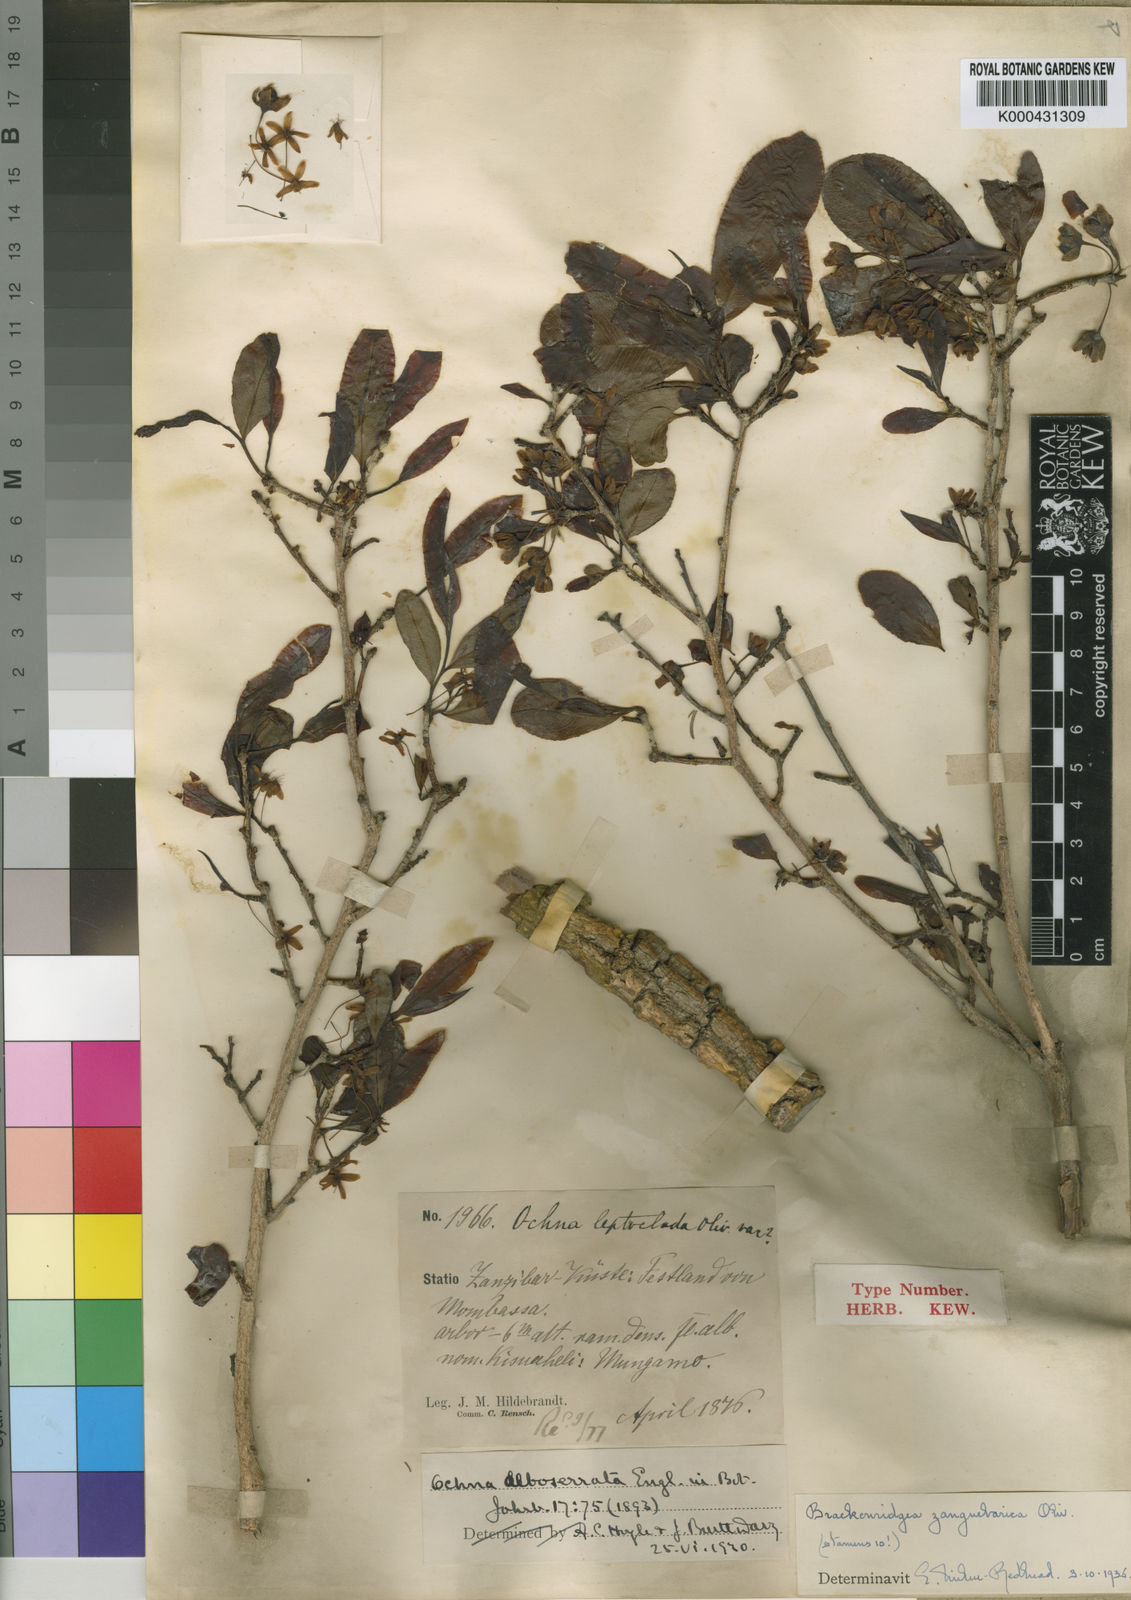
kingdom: Plantae
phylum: Tracheophyta
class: Magnoliopsida
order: Malpighiales
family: Ochnaceae
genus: Brackenridgea
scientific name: Brackenridgea zanguebarica
